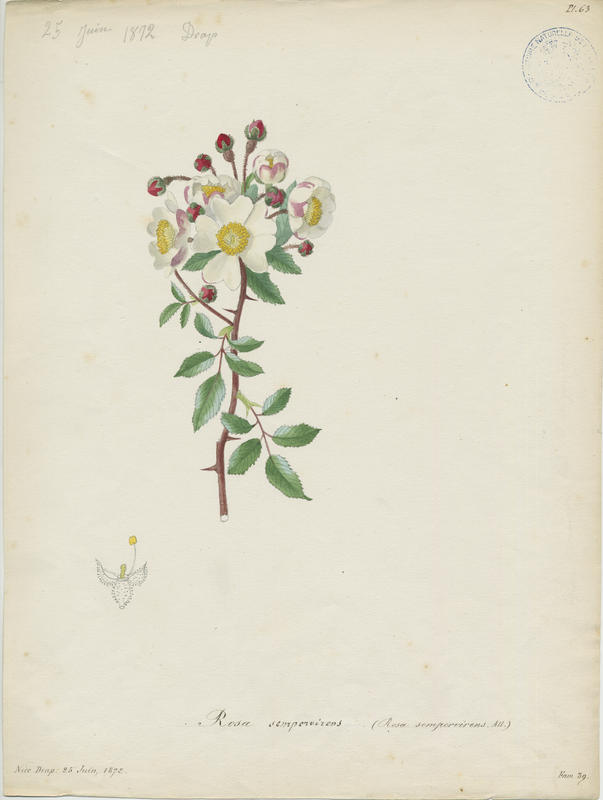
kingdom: Plantae
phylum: Tracheophyta
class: Magnoliopsida
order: Rosales
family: Rosaceae
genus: Rosa
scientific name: Rosa sempervirens
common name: Evergreen rose
